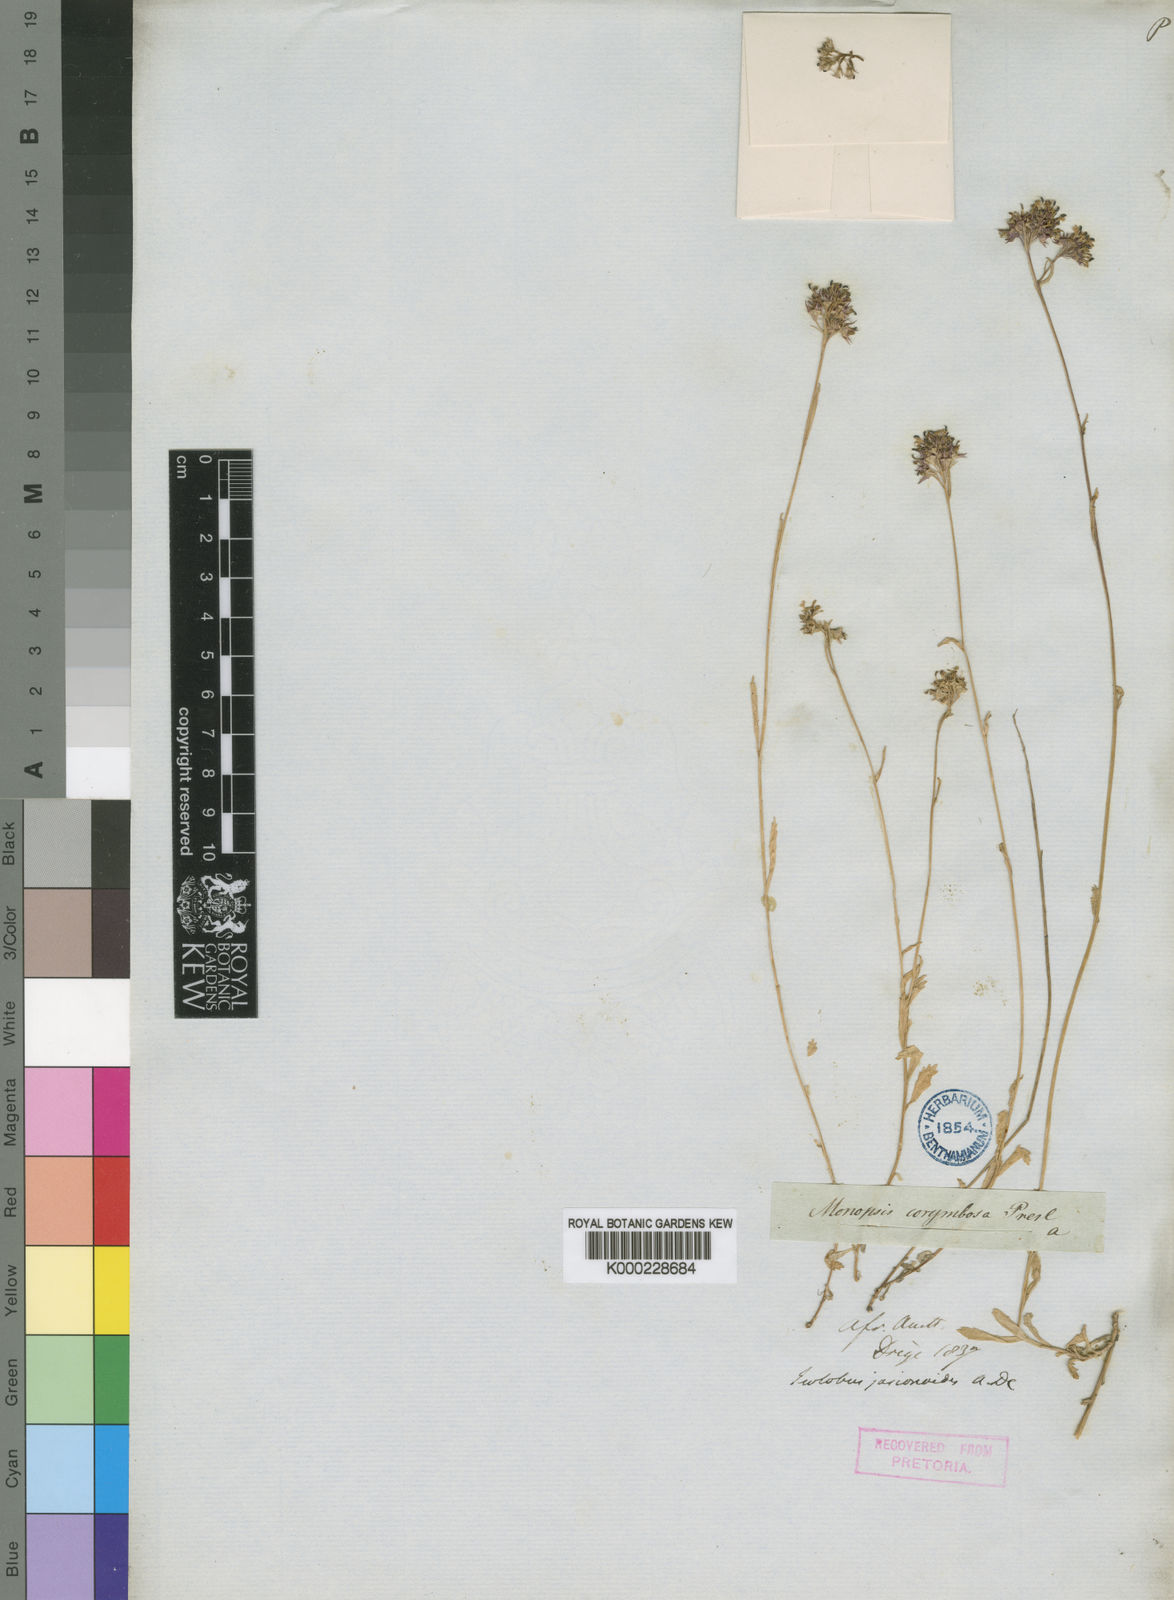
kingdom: Plantae
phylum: Tracheophyta
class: Magnoliopsida
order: Asterales
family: Campanulaceae
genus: Lobelia
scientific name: Lobelia jasionoides
